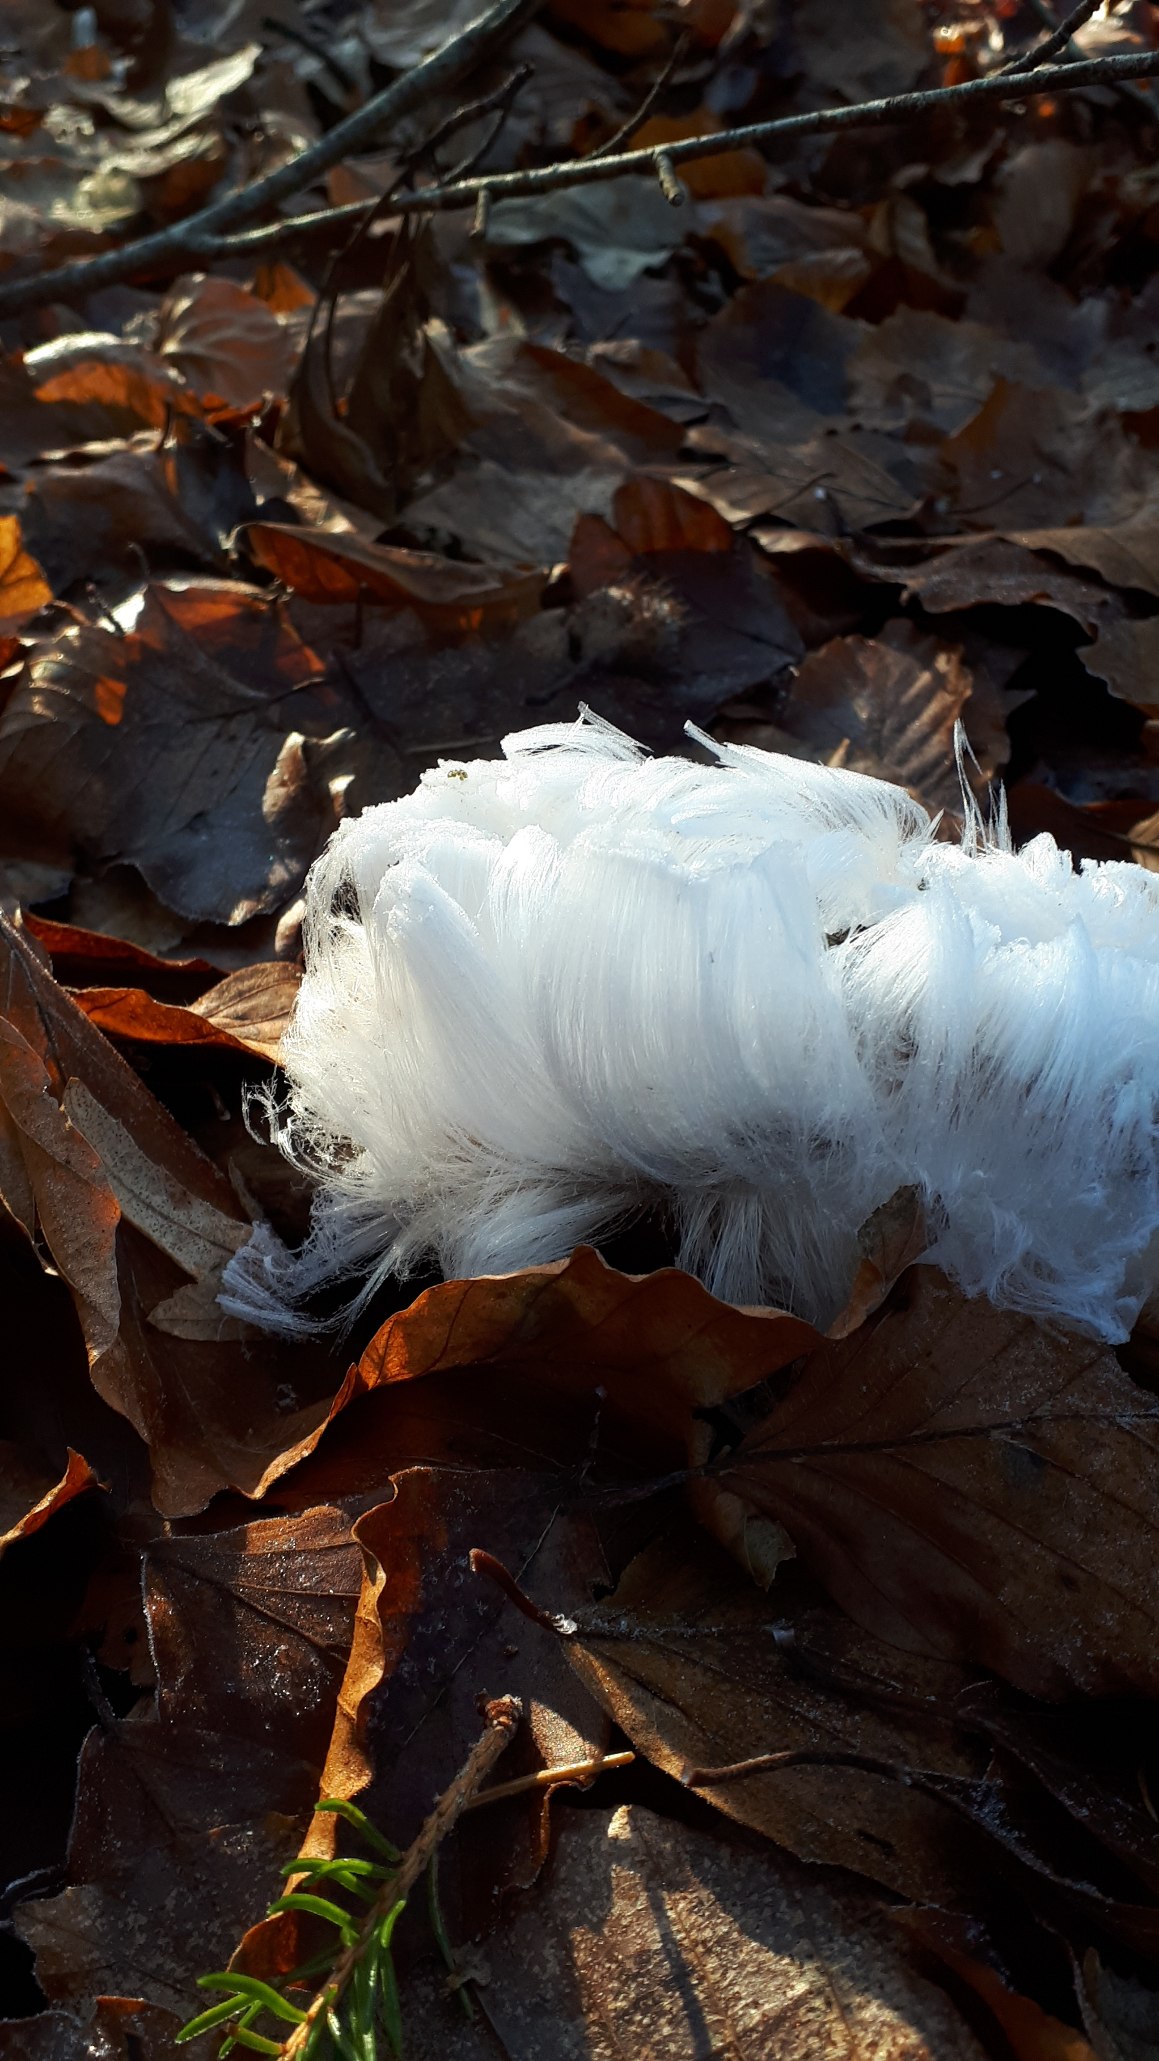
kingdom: Fungi
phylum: Basidiomycota
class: Tremellomycetes
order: Tremellales
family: Exidiaceae
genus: Exidiopsis
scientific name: Exidiopsis effusa
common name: Smuk bævrehinde
